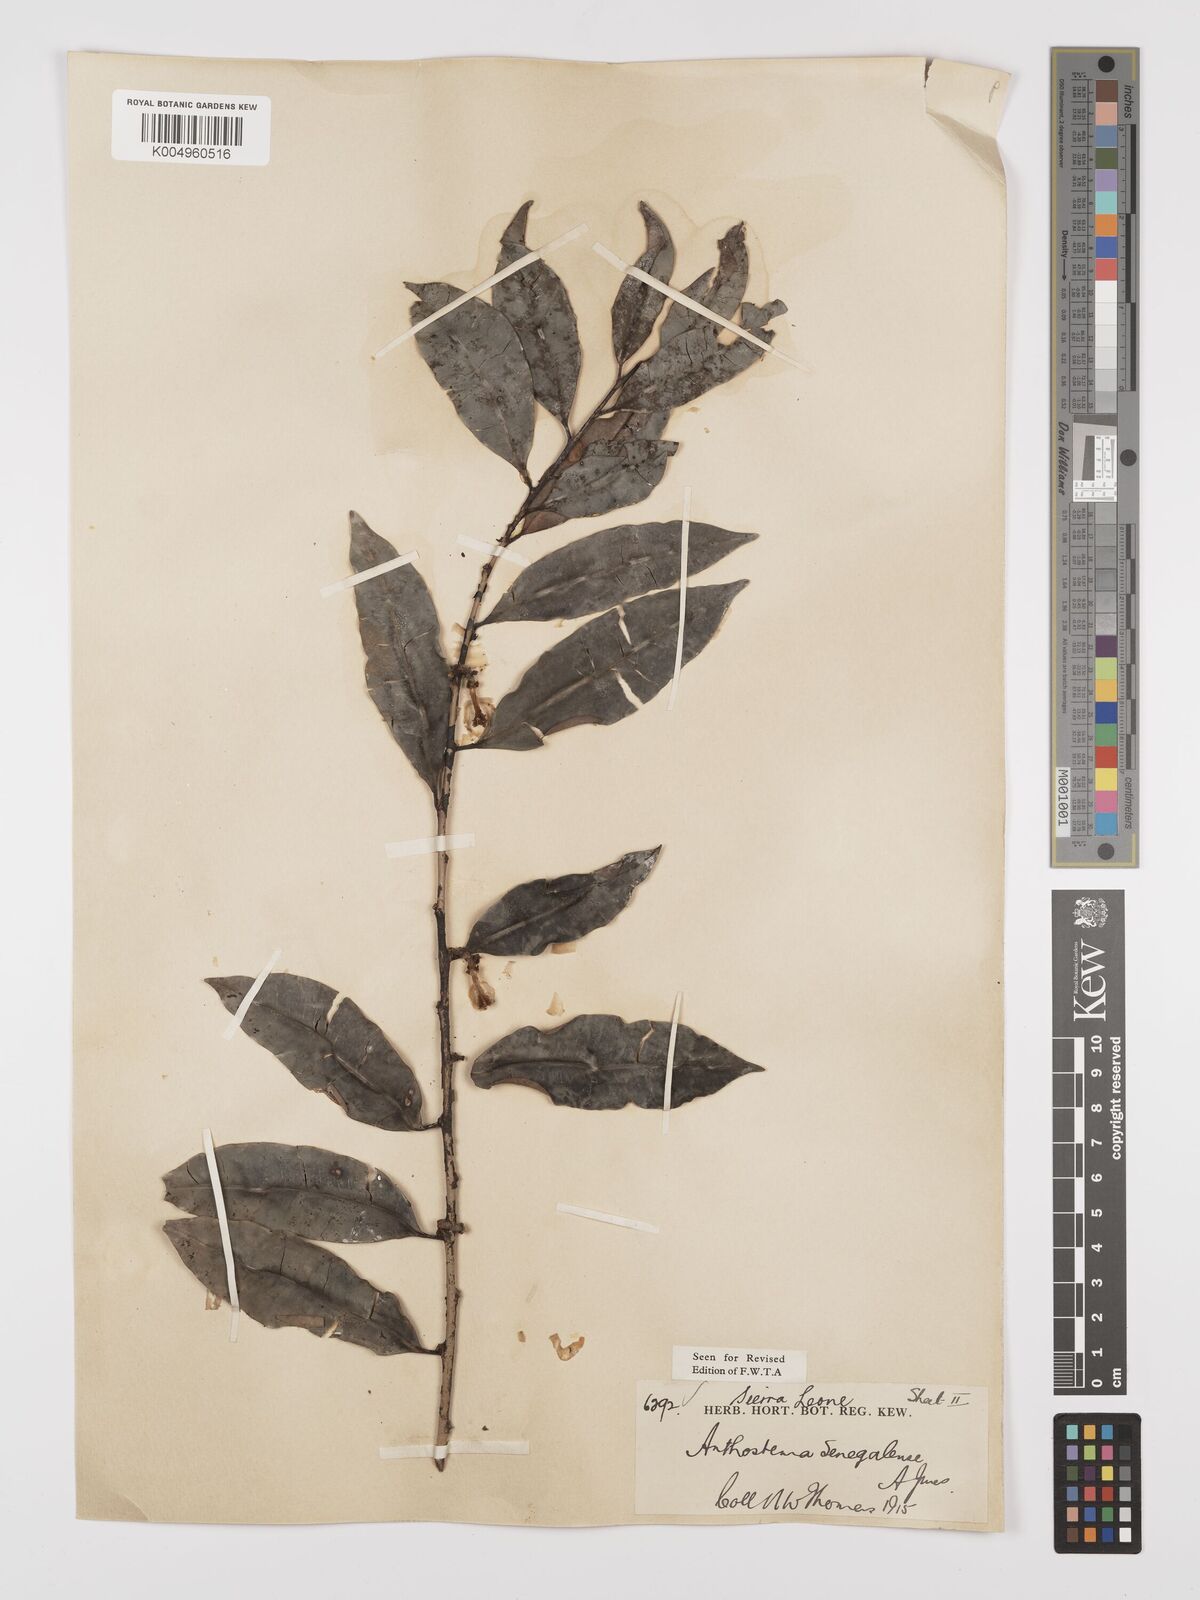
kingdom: Plantae
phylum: Tracheophyta
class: Magnoliopsida
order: Malpighiales
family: Euphorbiaceae
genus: Anthostema
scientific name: Anthostema senegalense
